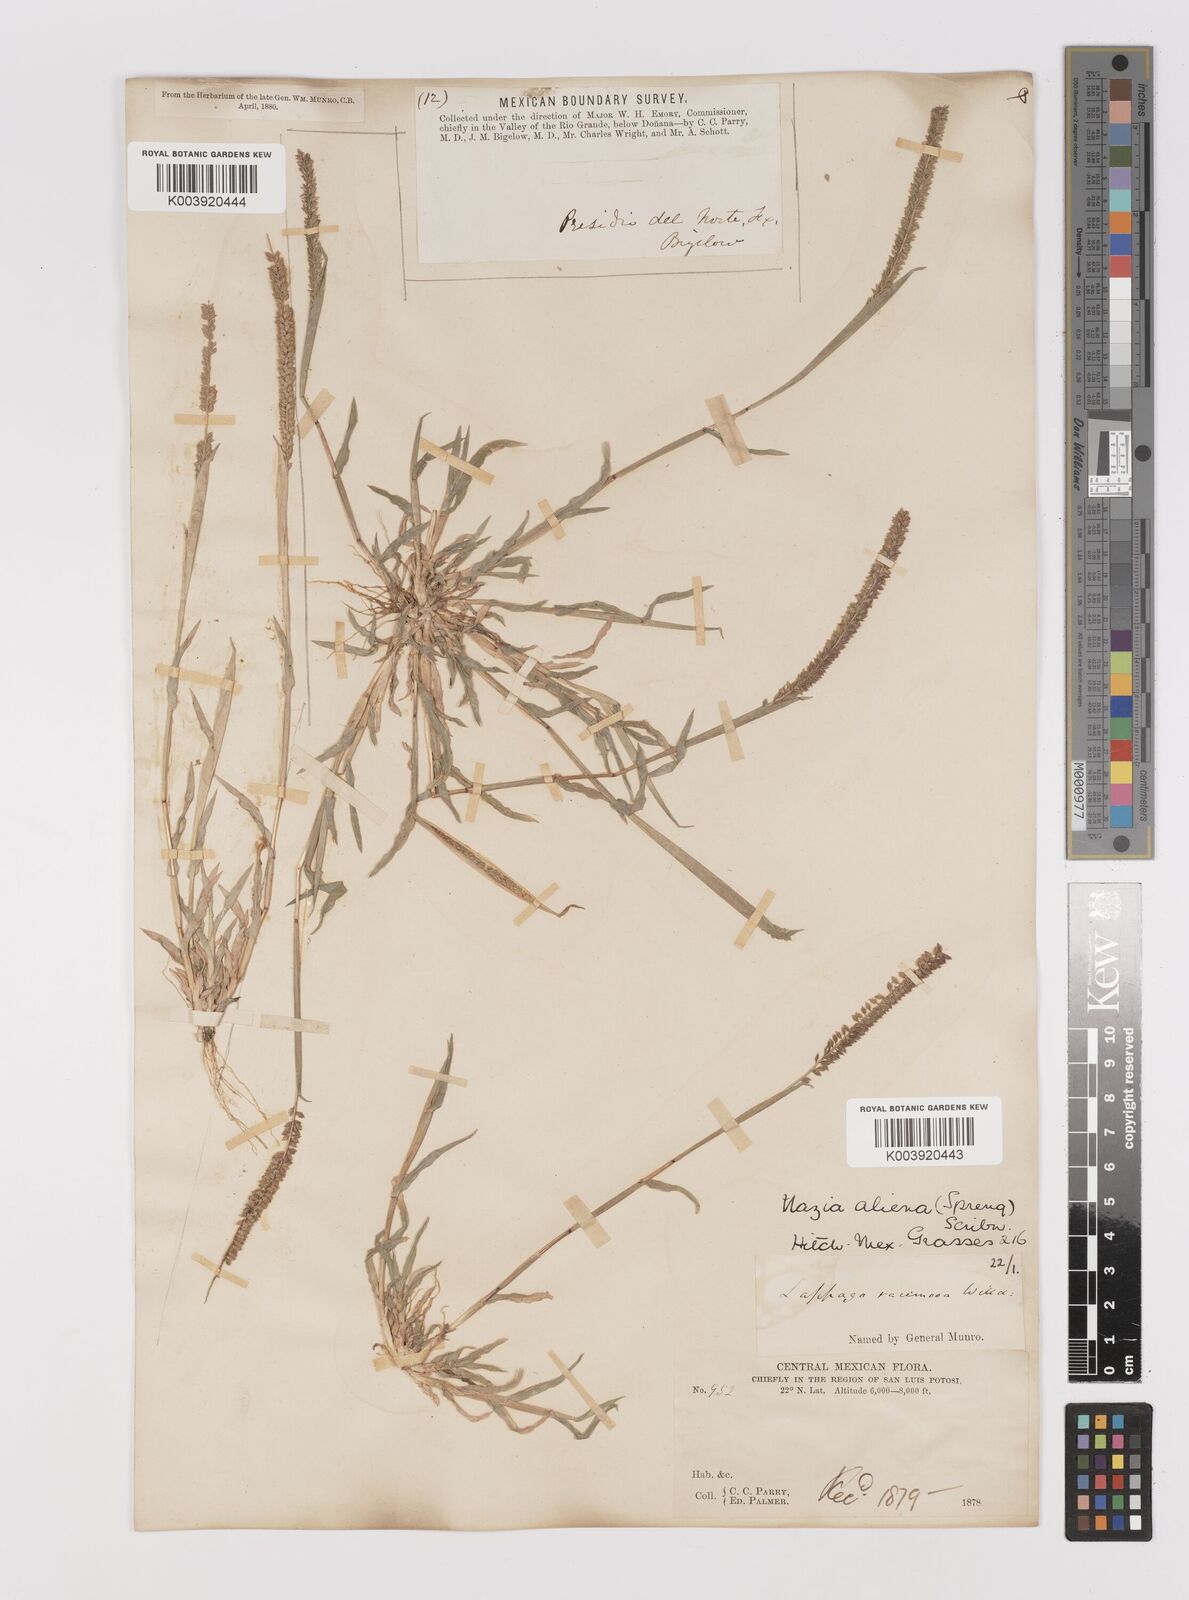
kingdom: Plantae
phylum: Tracheophyta
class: Liliopsida
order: Poales
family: Poaceae
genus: Tragus
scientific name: Tragus berteronianus
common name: African bur-grass
